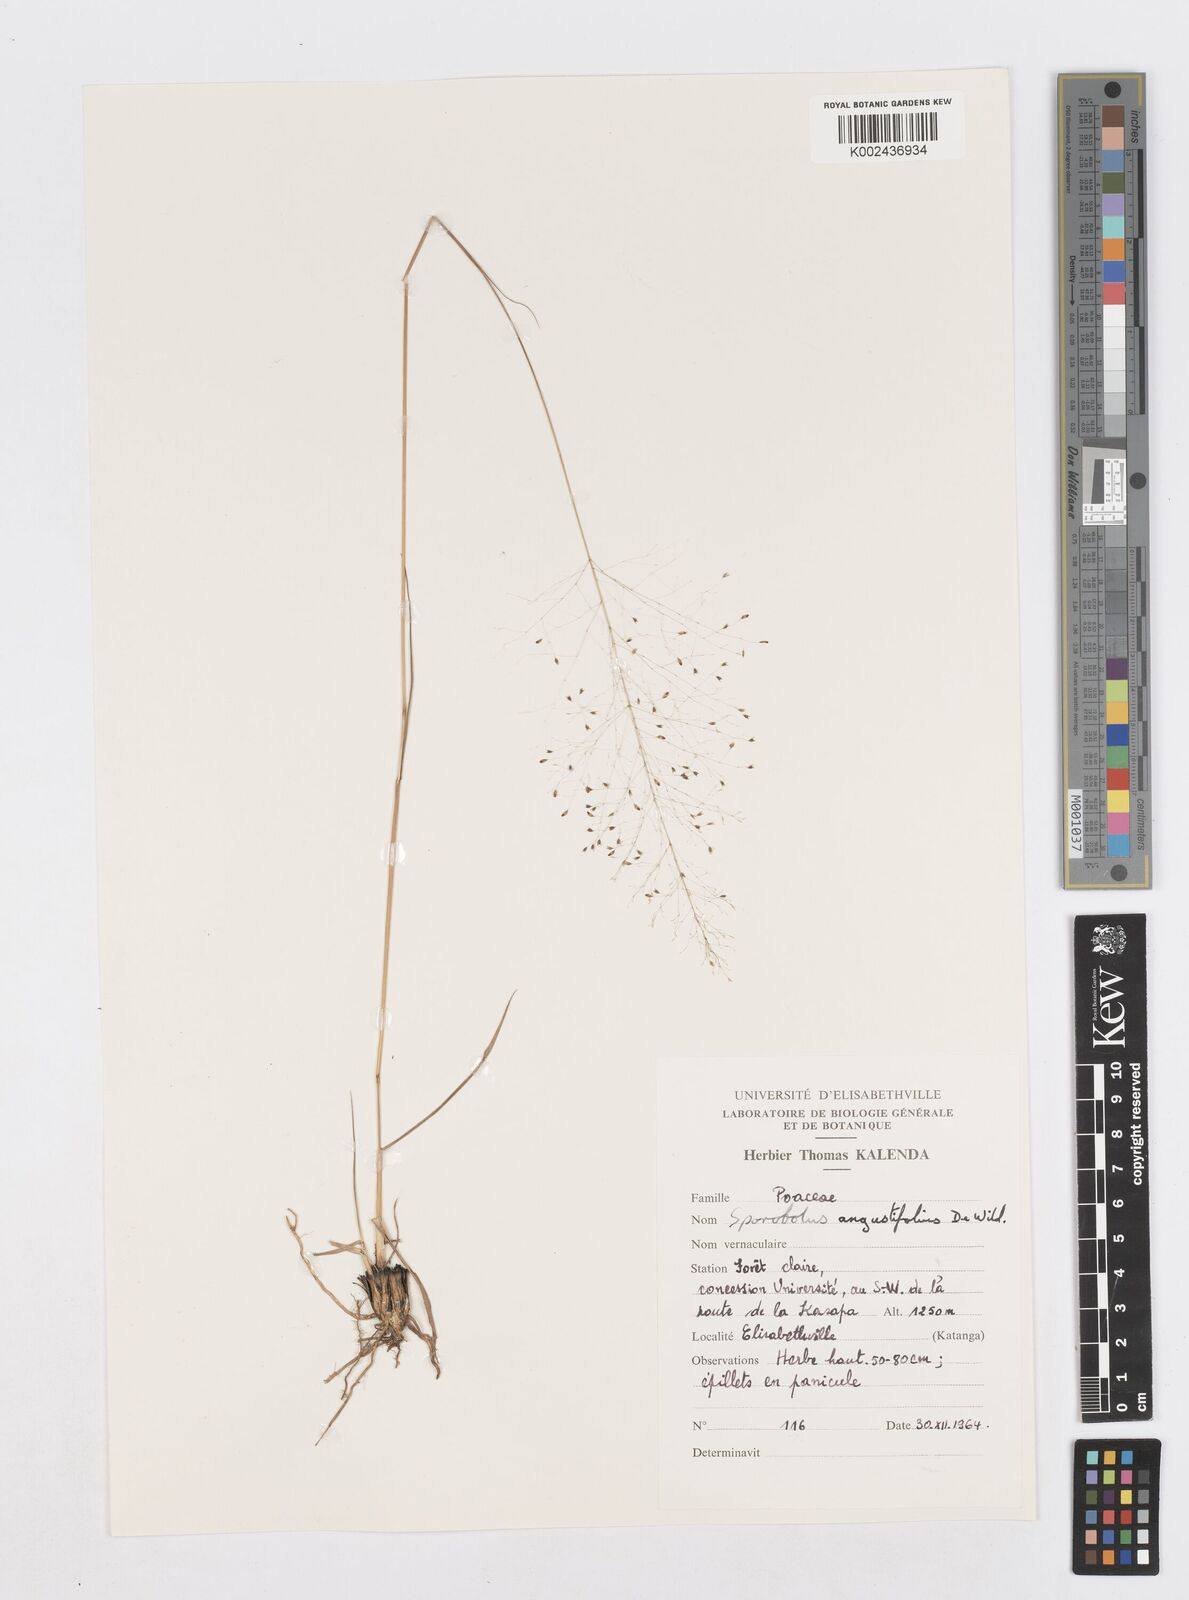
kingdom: Plantae
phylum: Tracheophyta
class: Liliopsida
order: Poales
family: Poaceae
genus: Sporobolus
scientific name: Sporobolus myrianthus
